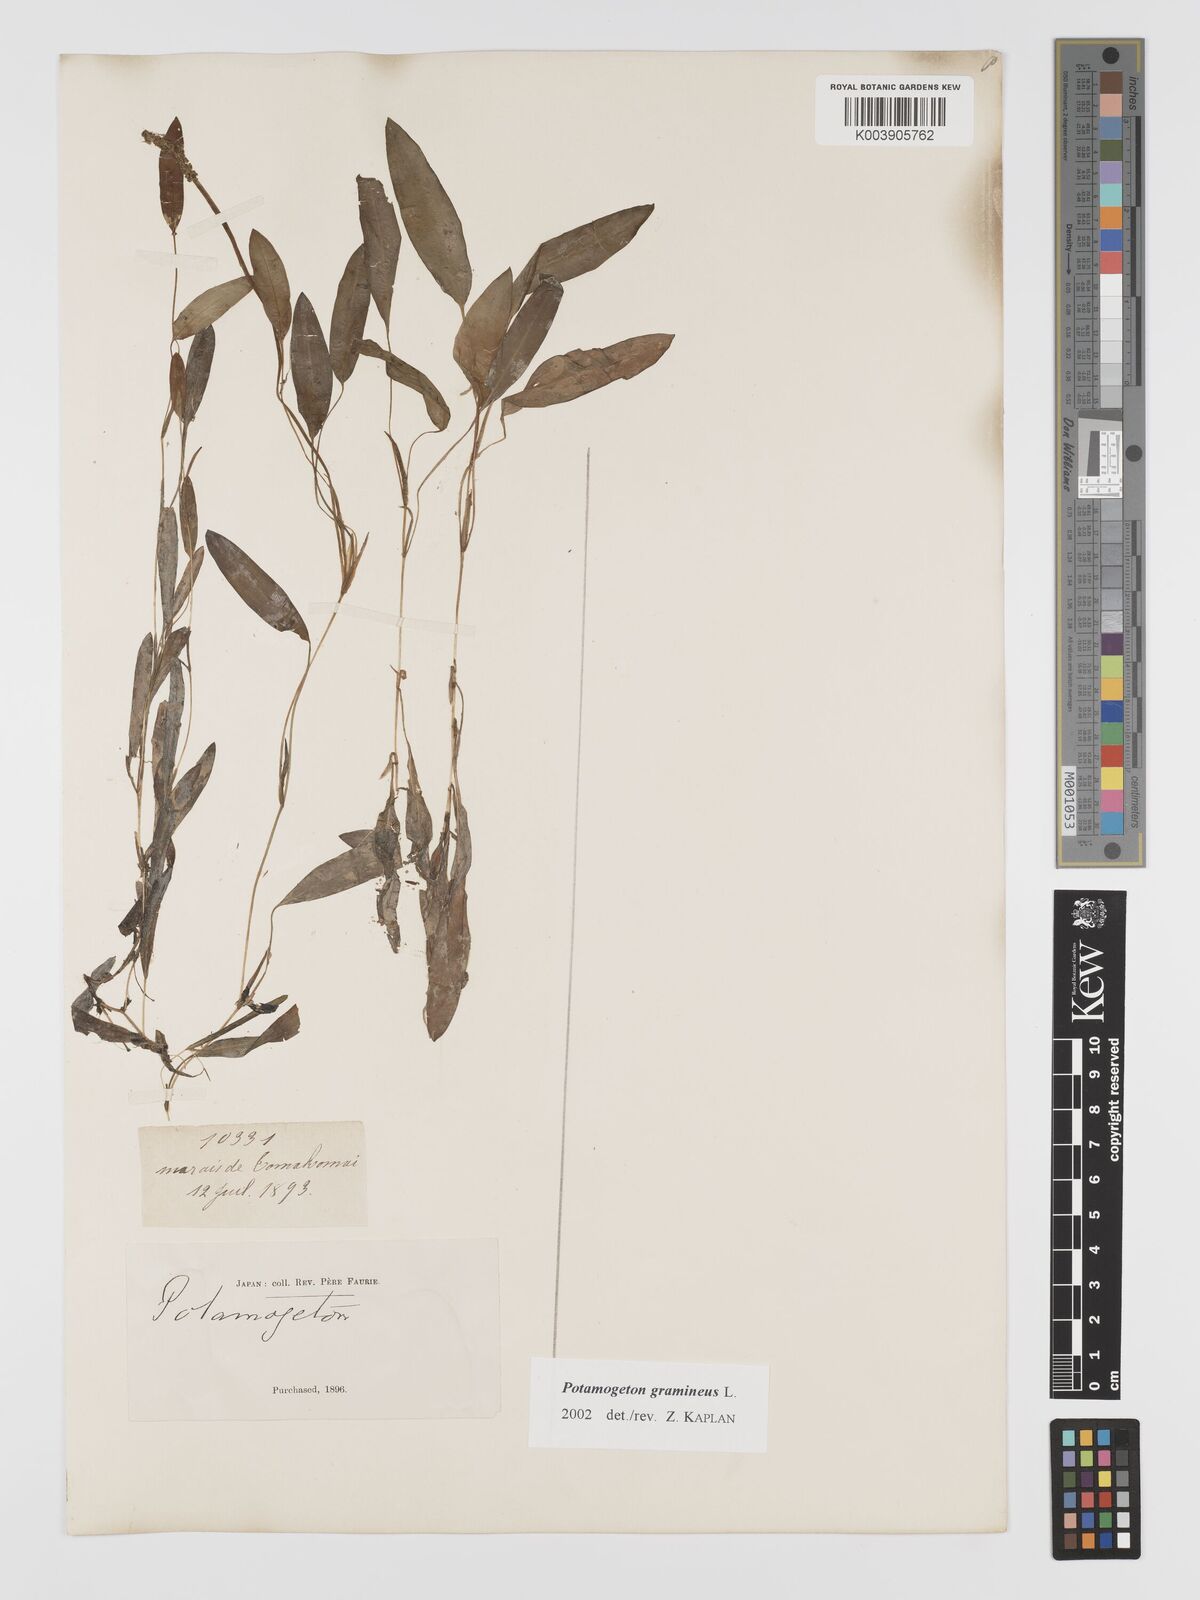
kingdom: Plantae
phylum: Tracheophyta
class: Liliopsida
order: Alismatales
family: Potamogetonaceae
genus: Potamogeton
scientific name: Potamogeton gramineus
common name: Various-leaved pondweed
